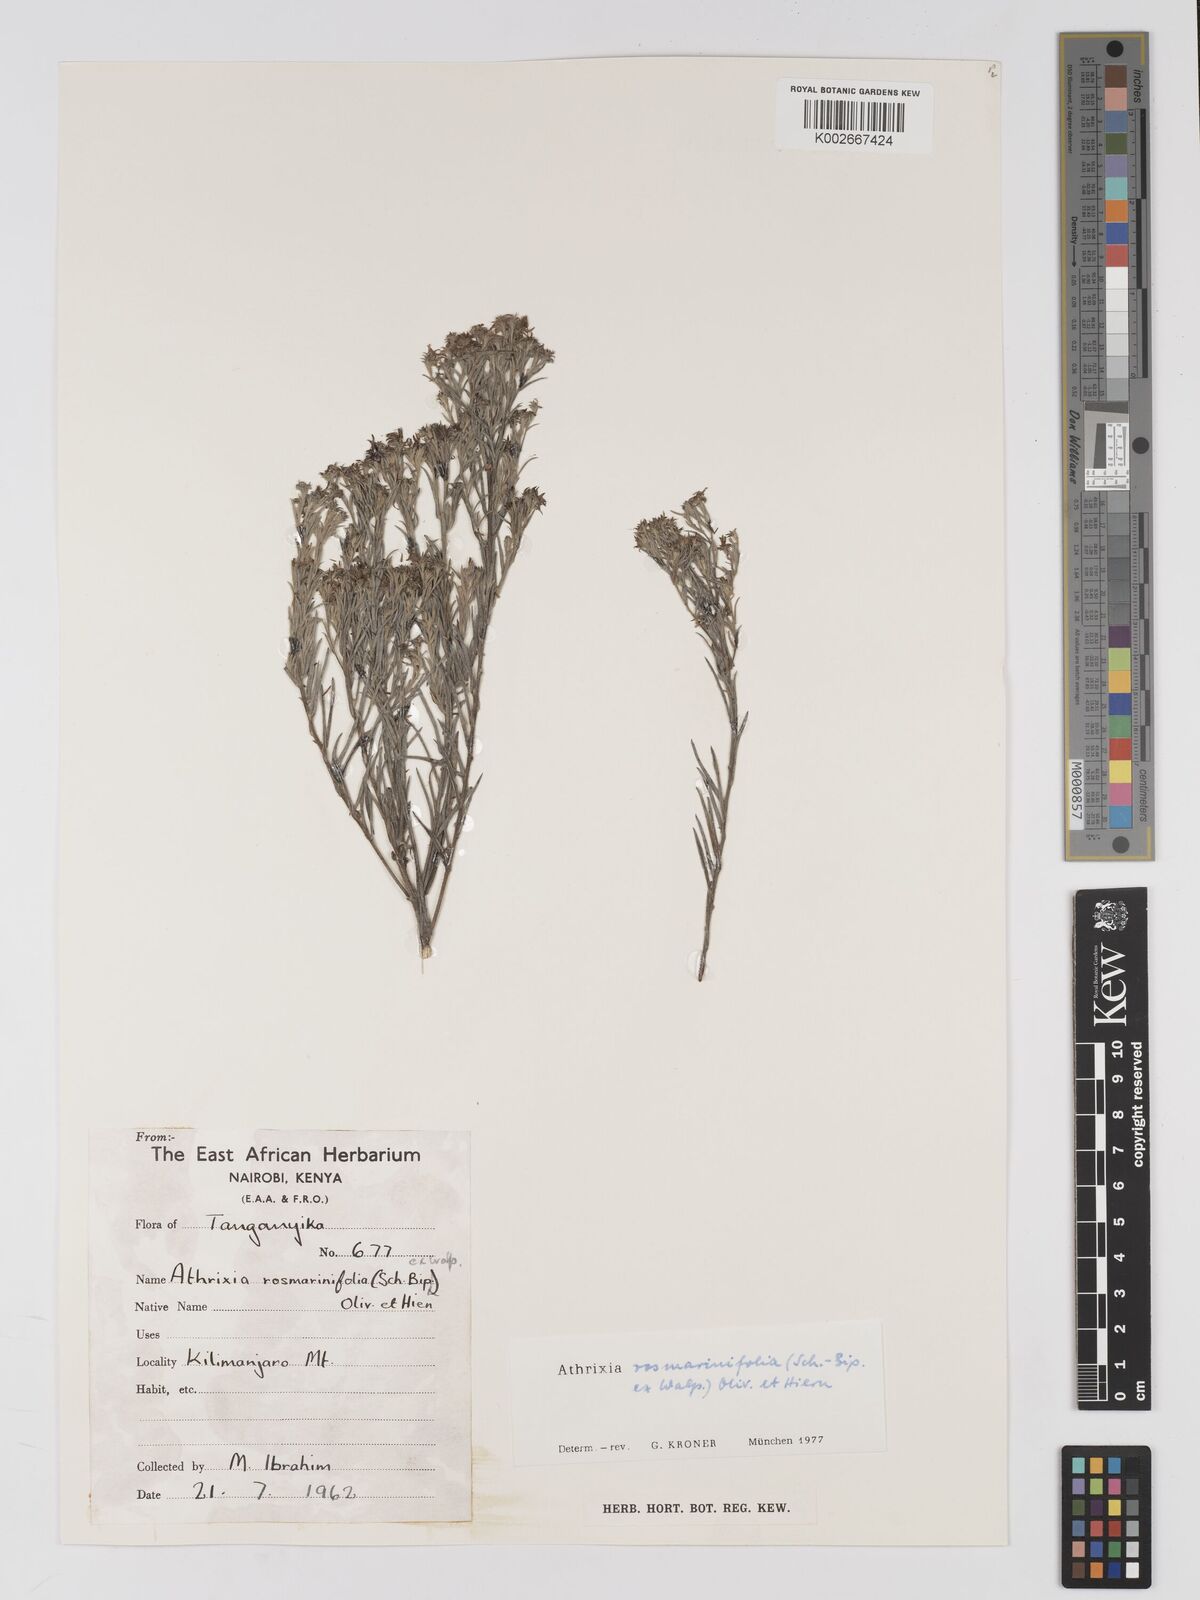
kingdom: Plantae
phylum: Tracheophyta
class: Magnoliopsida
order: Asterales
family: Asteraceae
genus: Athrixia
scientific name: Athrixia rosmarinifolia
